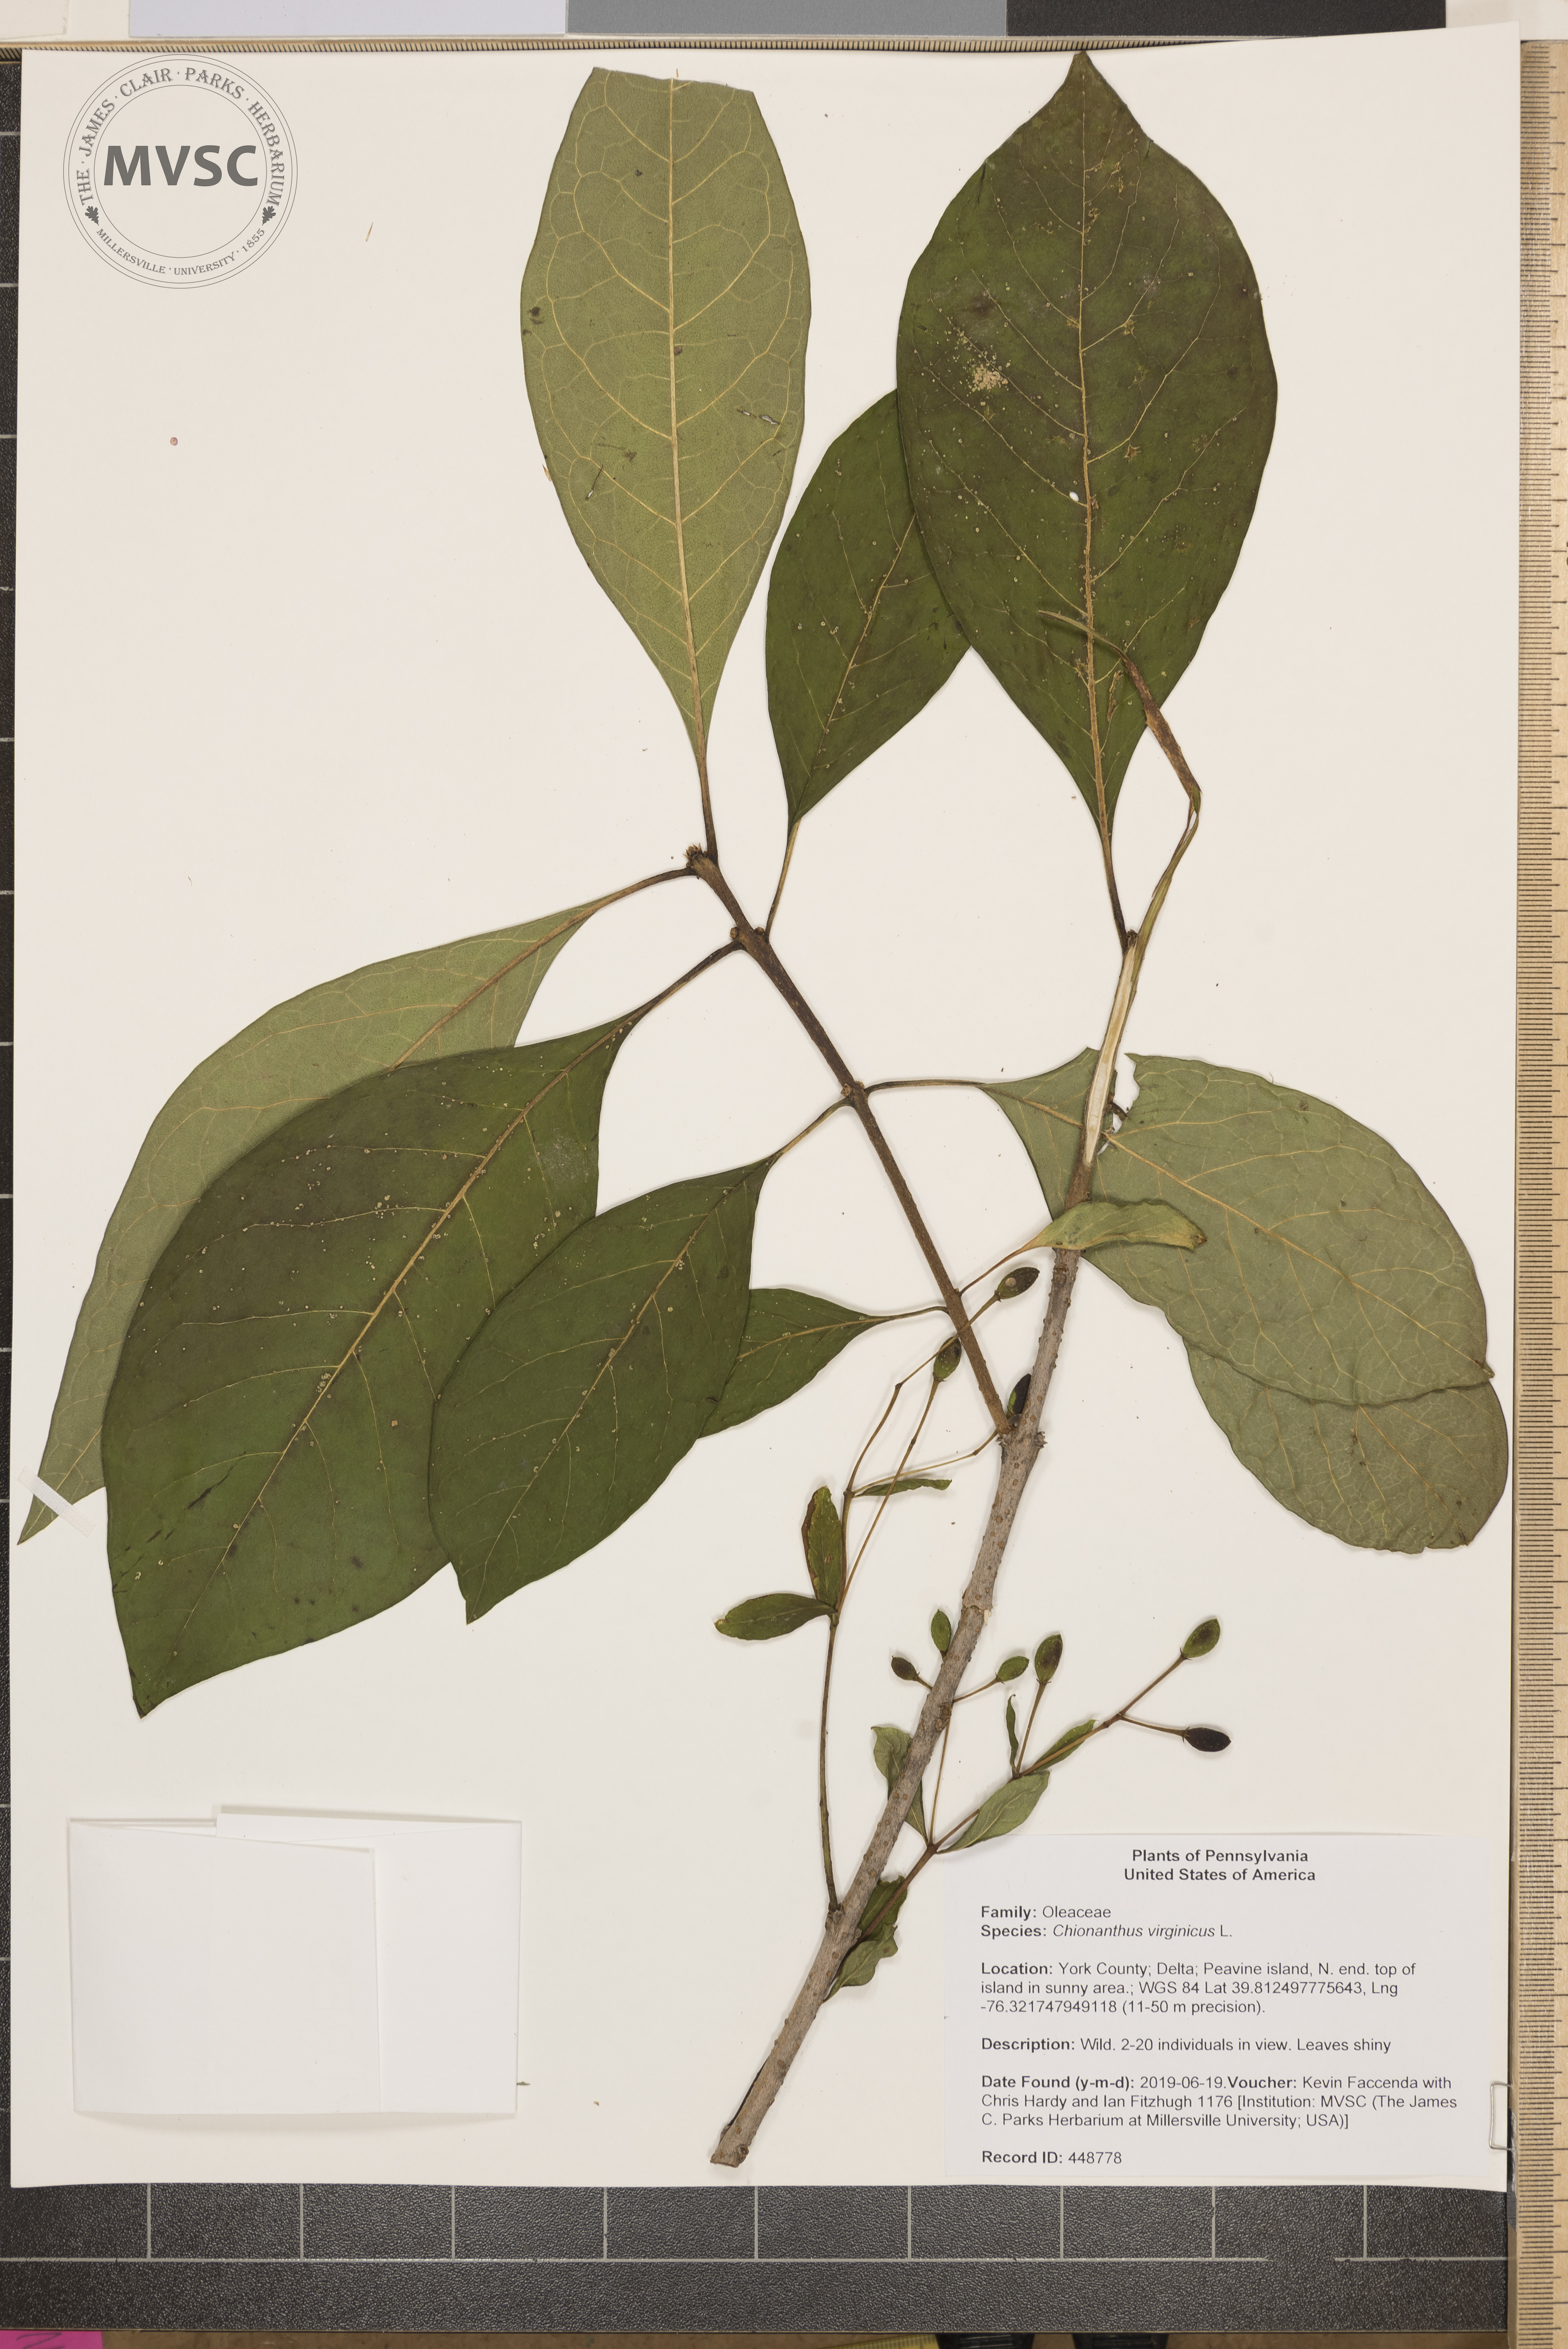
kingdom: Plantae
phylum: Tracheophyta
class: Magnoliopsida
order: Lamiales
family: Oleaceae
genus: Chionanthus
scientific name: Chionanthus virginicus
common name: American fringetree
